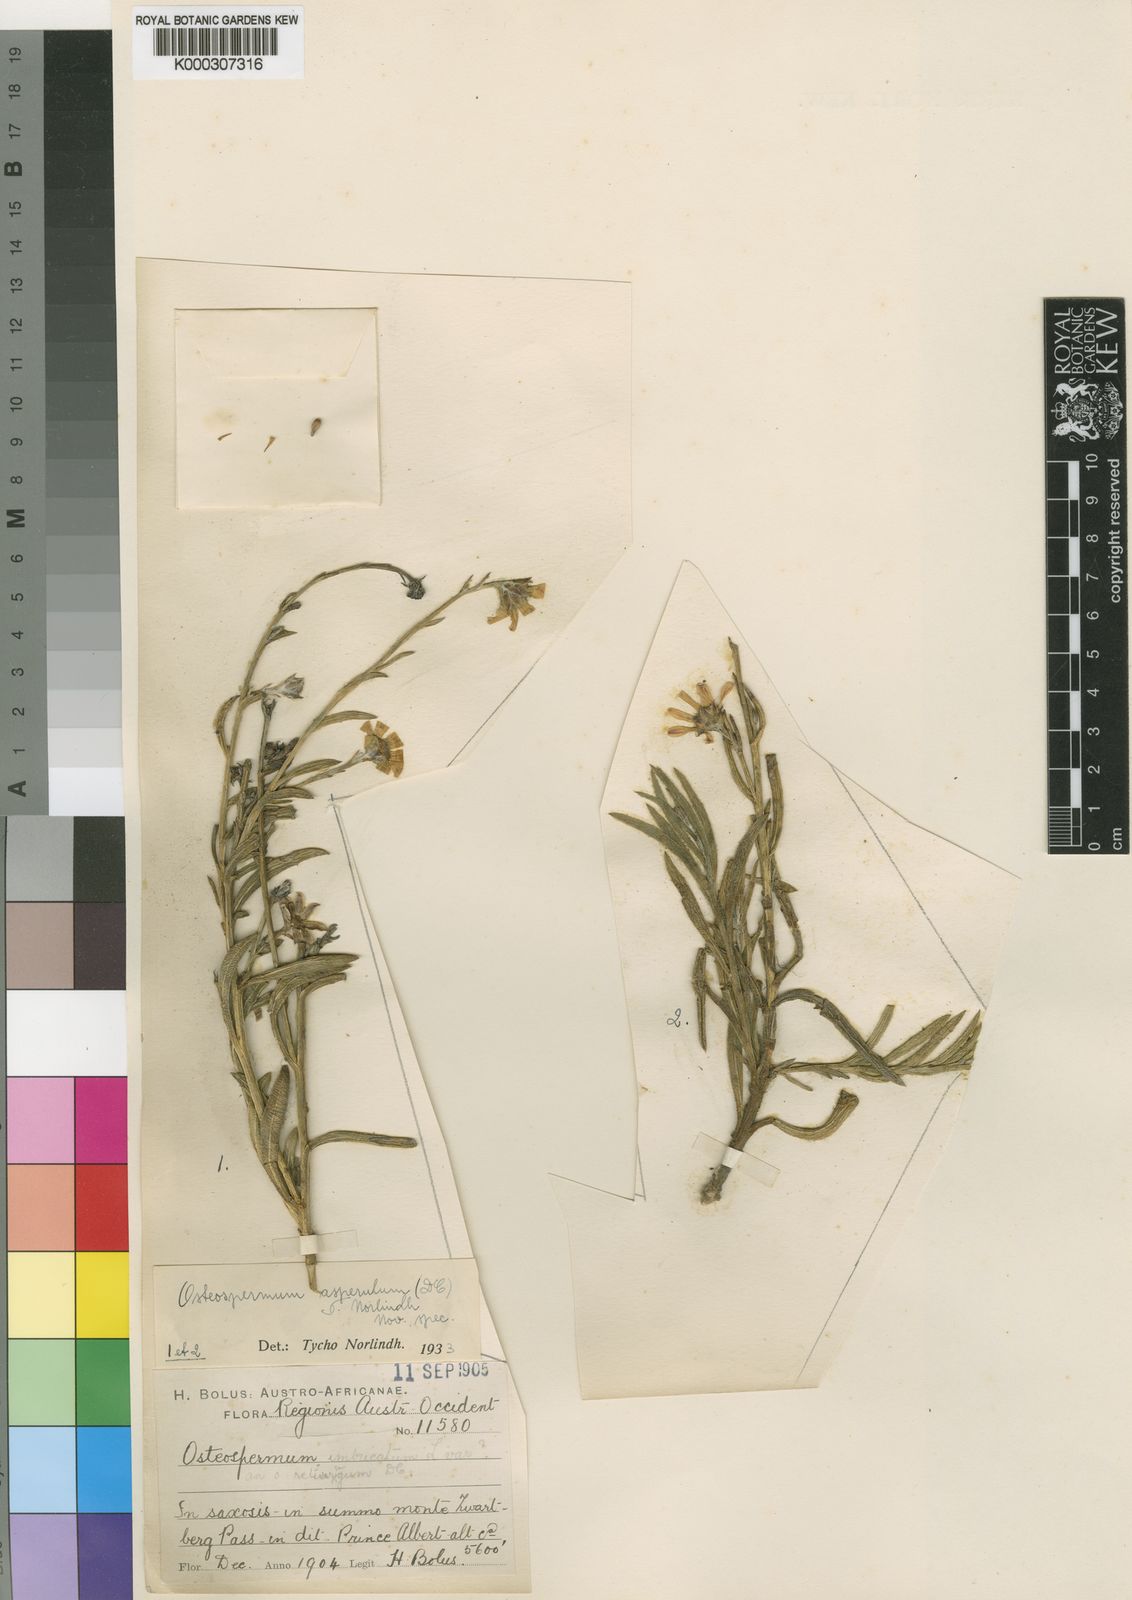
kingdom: Plantae
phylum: Tracheophyta
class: Magnoliopsida
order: Asterales
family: Asteraceae
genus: Osteospermum
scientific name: Osteospermum asperulum
